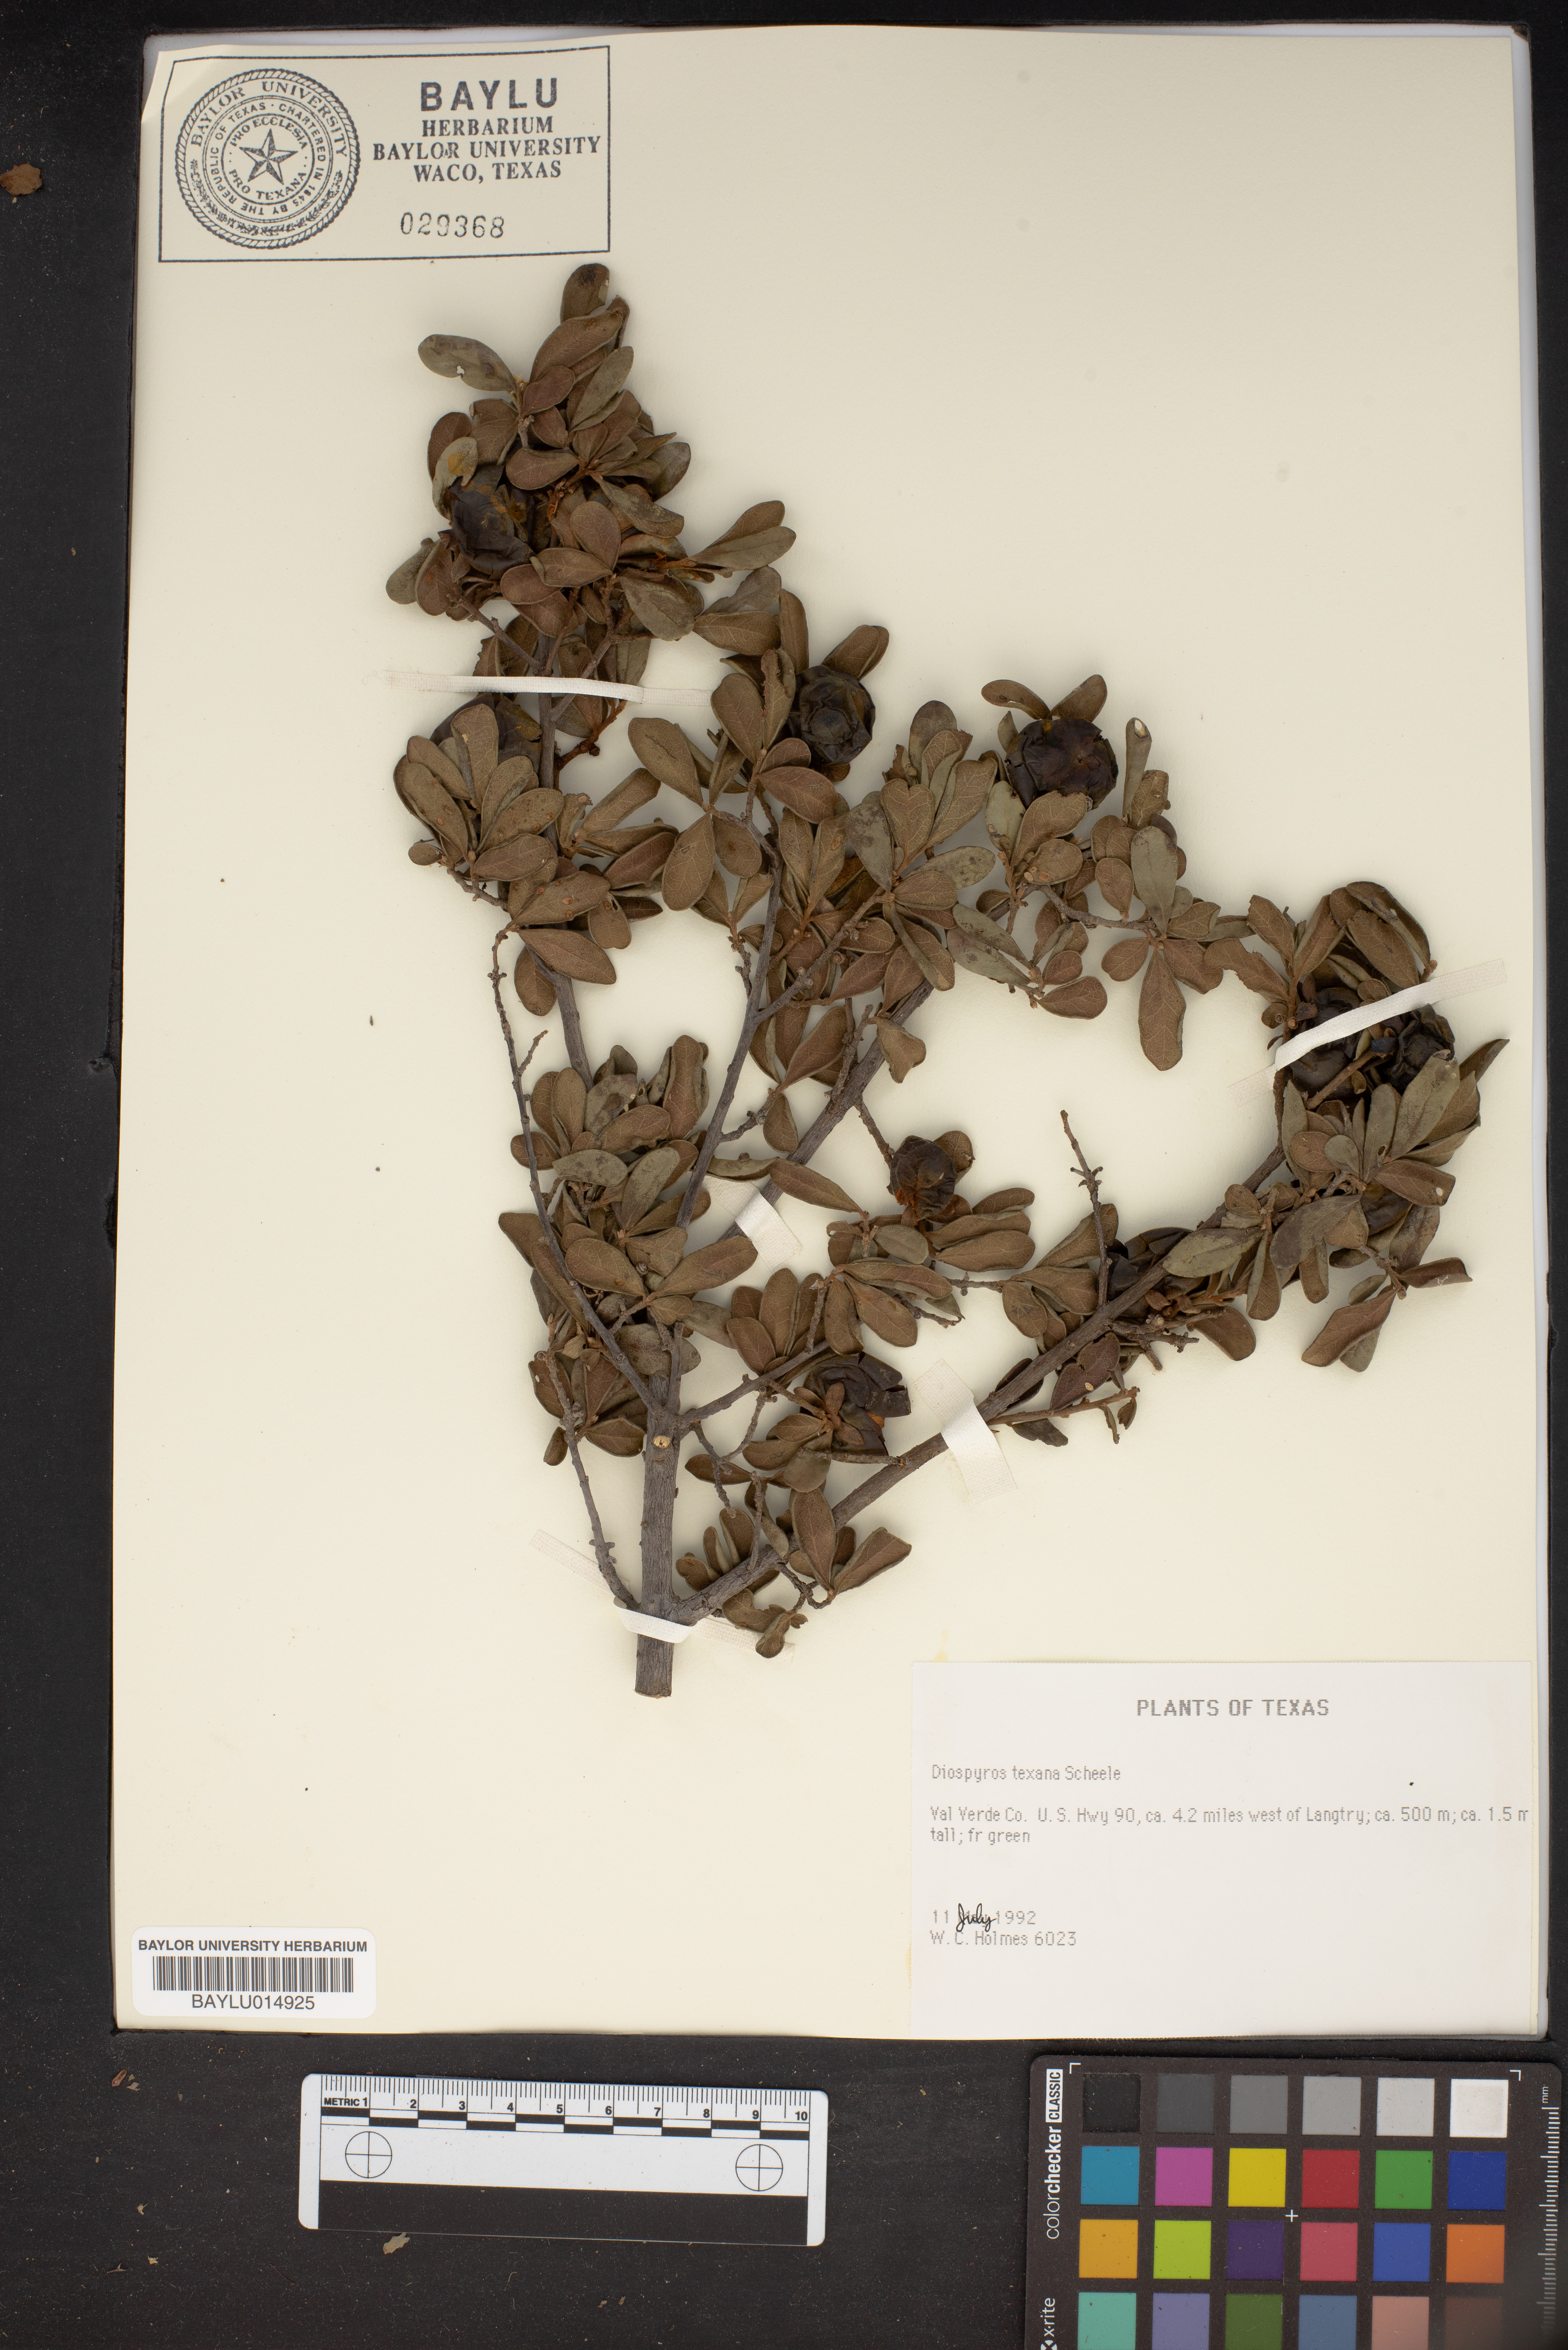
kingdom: Plantae
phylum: Tracheophyta
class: Magnoliopsida
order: Ericales
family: Ebenaceae
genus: Diospyros
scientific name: Diospyros texana
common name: Texas persimmon
